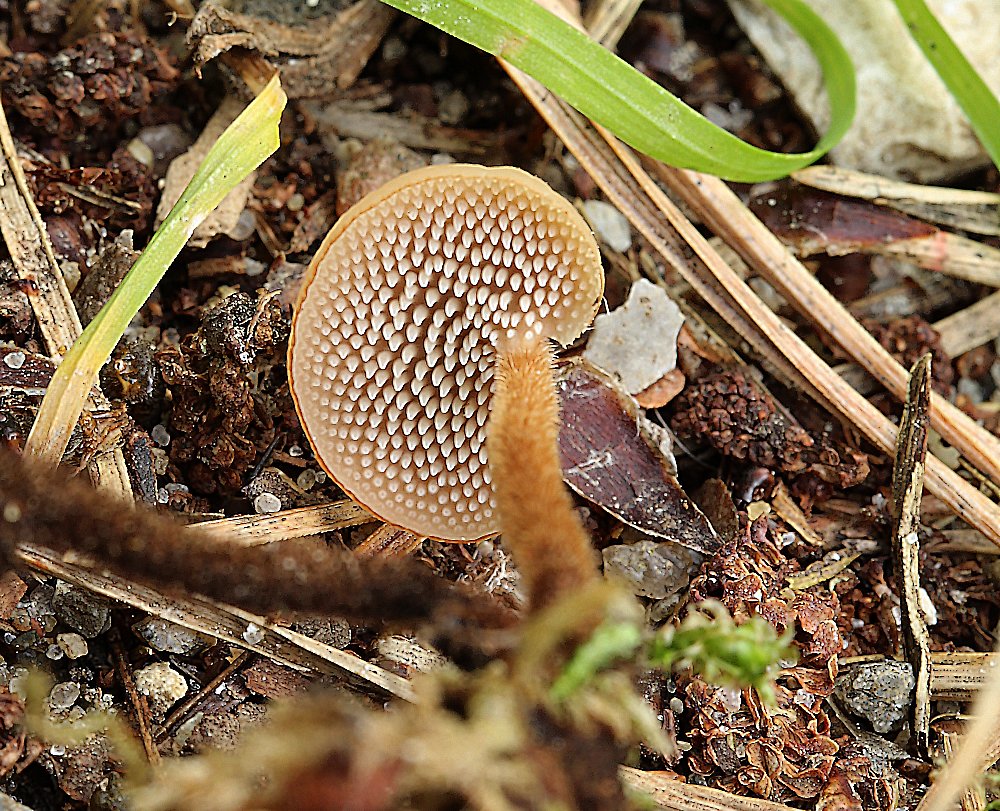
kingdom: Fungi
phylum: Basidiomycota
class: Agaricomycetes
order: Russulales
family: Auriscalpiaceae
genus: Auriscalpium
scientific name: Auriscalpium vulgare
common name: koglepigsvamp
